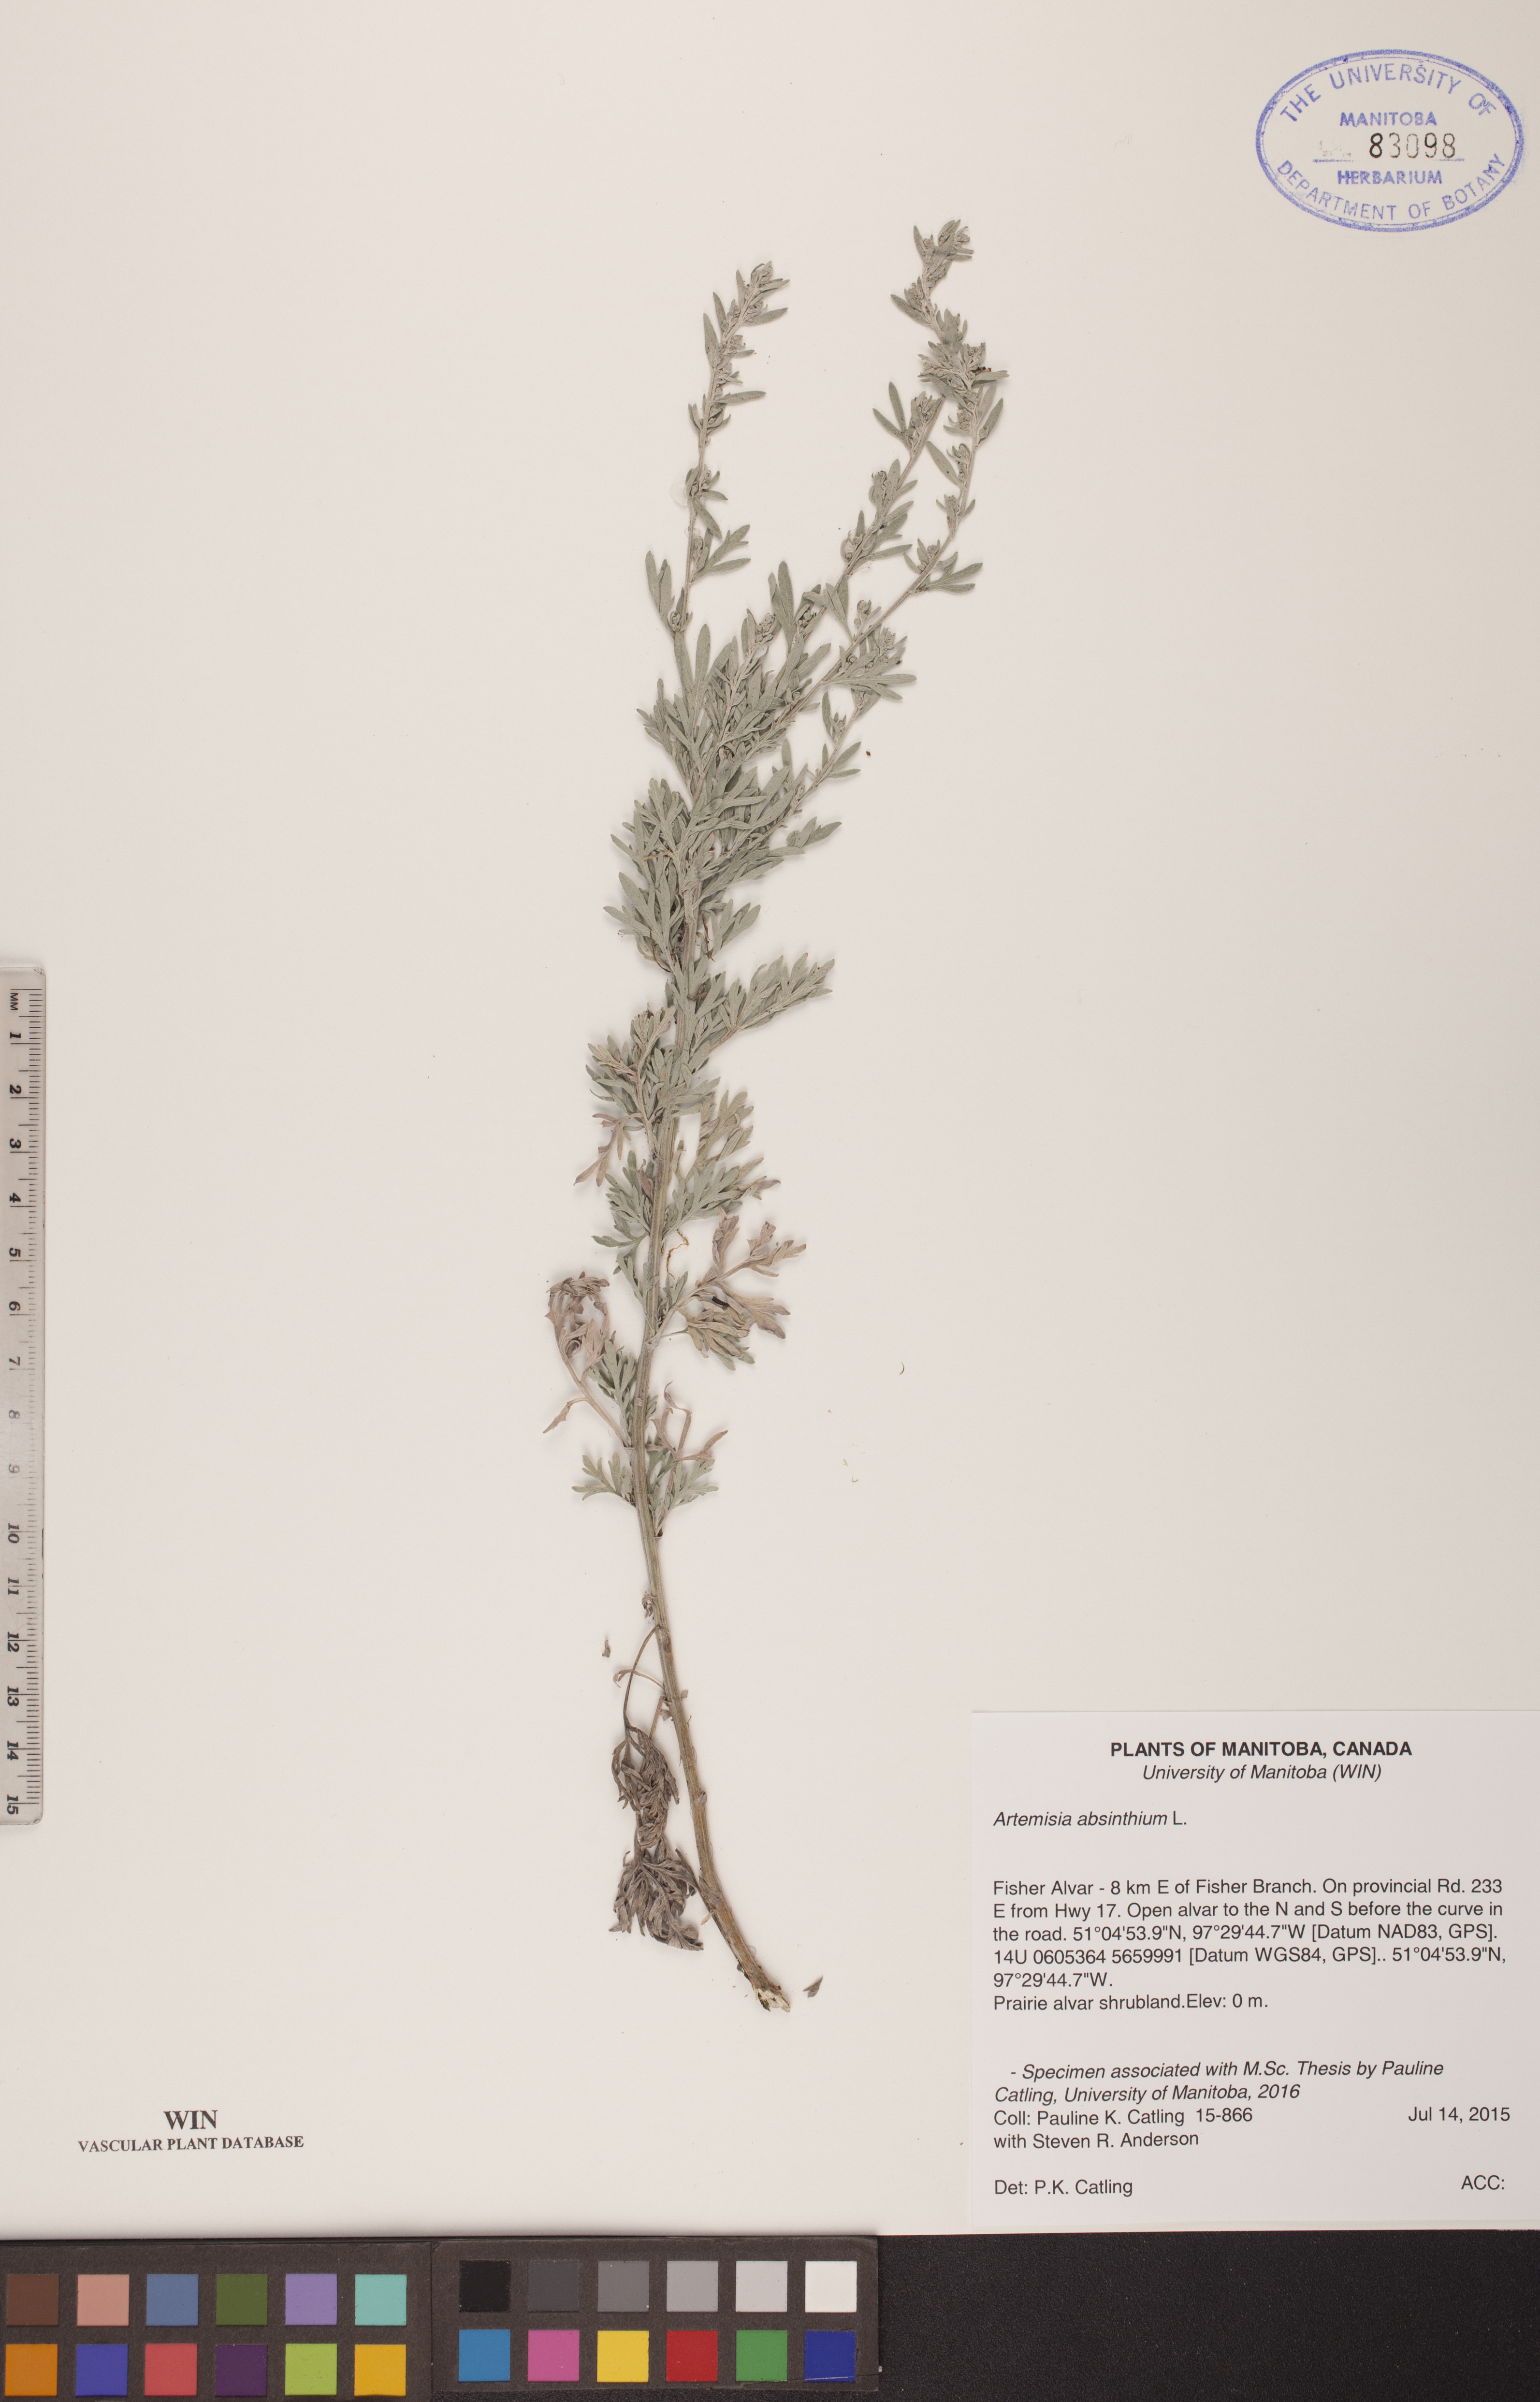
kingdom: Plantae
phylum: Tracheophyta
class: Magnoliopsida
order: Asterales
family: Asteraceae
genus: Artemisia
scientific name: Artemisia absinthium
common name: Wormwood
